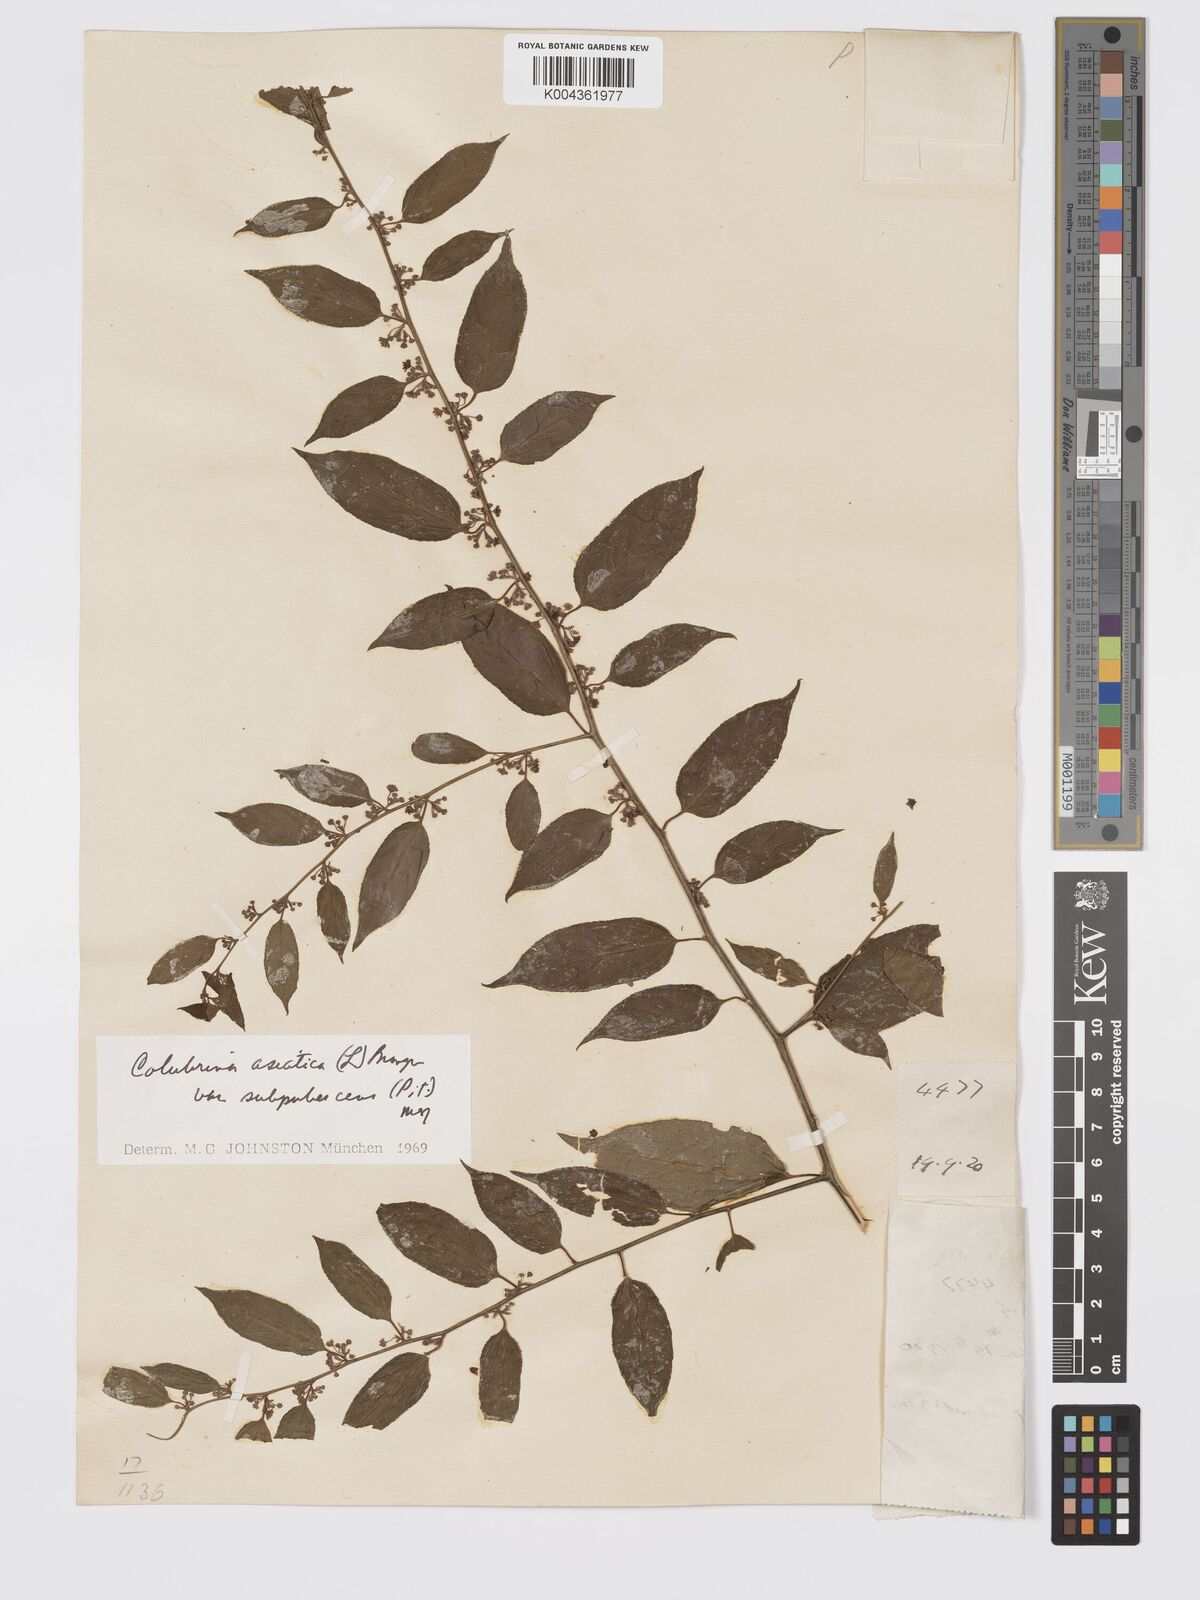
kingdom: Plantae
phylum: Tracheophyta
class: Magnoliopsida
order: Rosales
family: Rhamnaceae
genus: Colubrina
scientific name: Colubrina javanica
